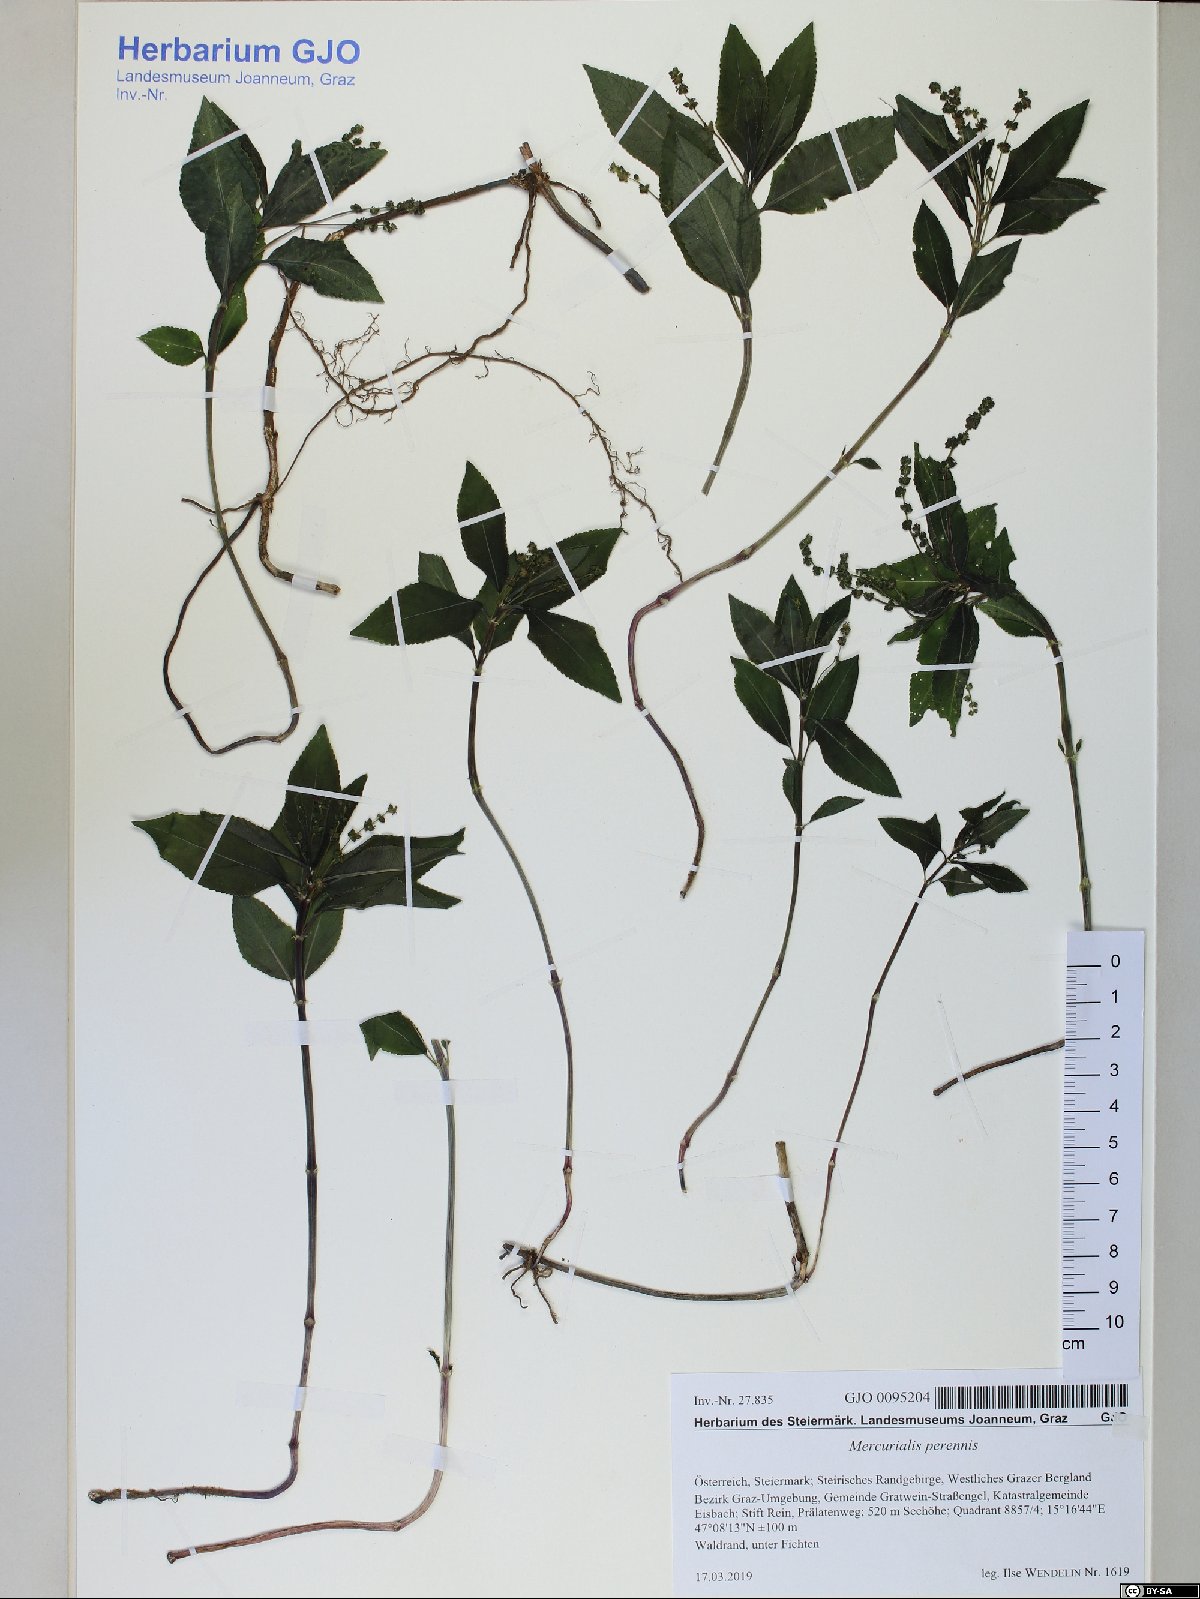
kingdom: Plantae
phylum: Tracheophyta
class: Magnoliopsida
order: Malpighiales
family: Euphorbiaceae
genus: Mercurialis
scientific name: Mercurialis perennis
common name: Dog mercury
